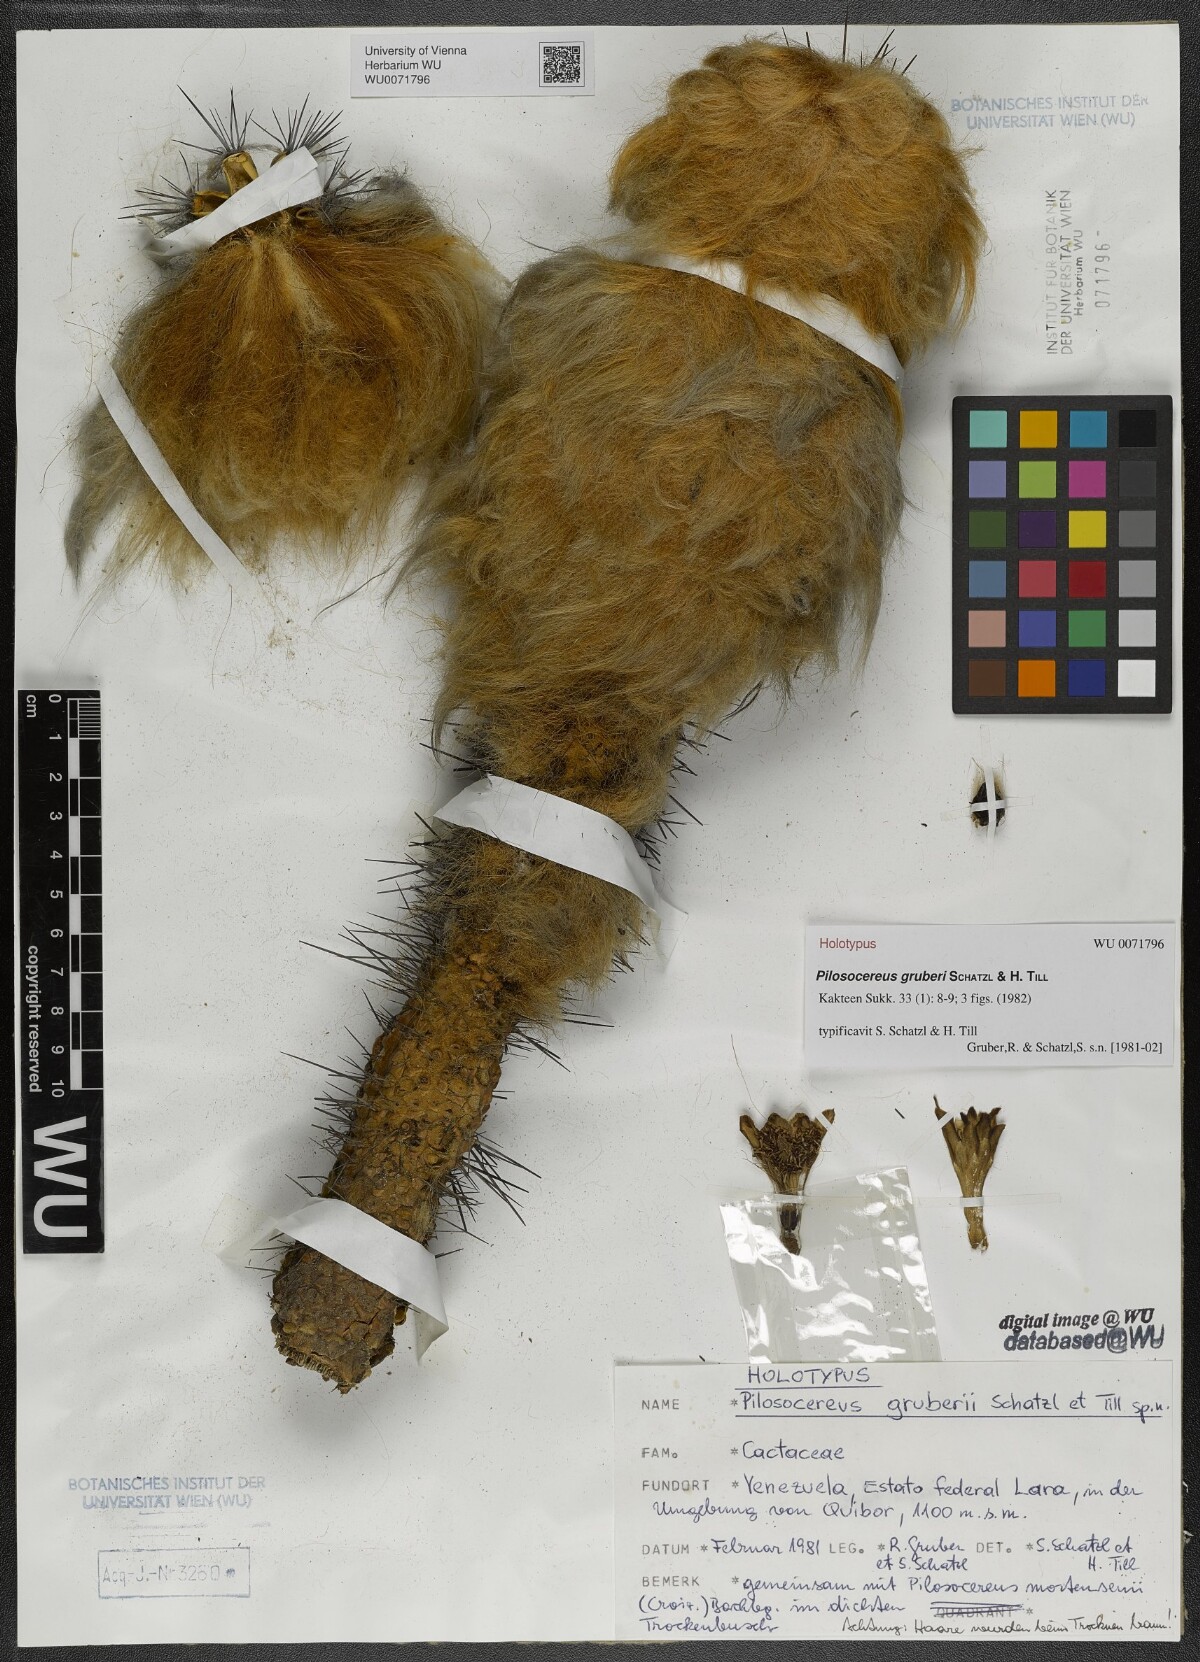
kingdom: Plantae
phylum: Tracheophyta
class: Magnoliopsida
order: Caryophyllales
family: Cactaceae
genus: Cereus
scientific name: Cereus mortensenii
